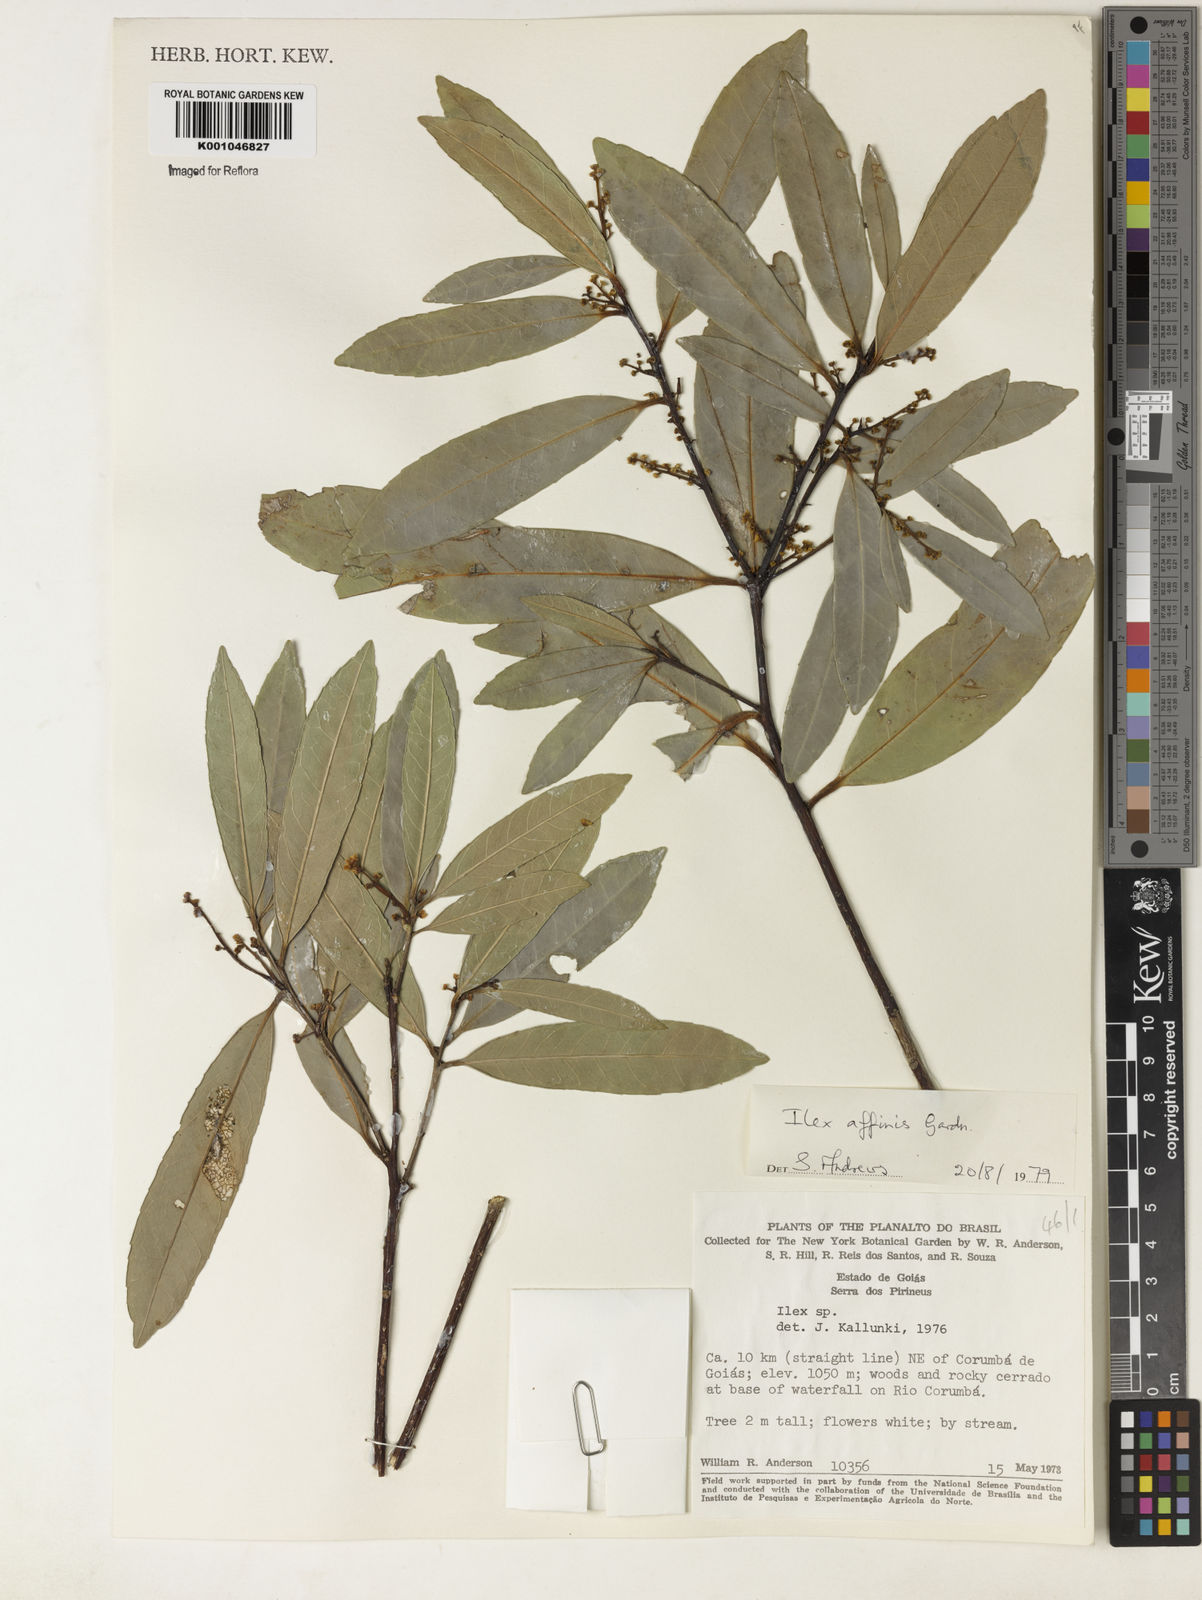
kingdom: Plantae
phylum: Tracheophyta
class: Magnoliopsida
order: Aquifoliales
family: Aquifoliaceae
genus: Ilex
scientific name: Ilex affinis
